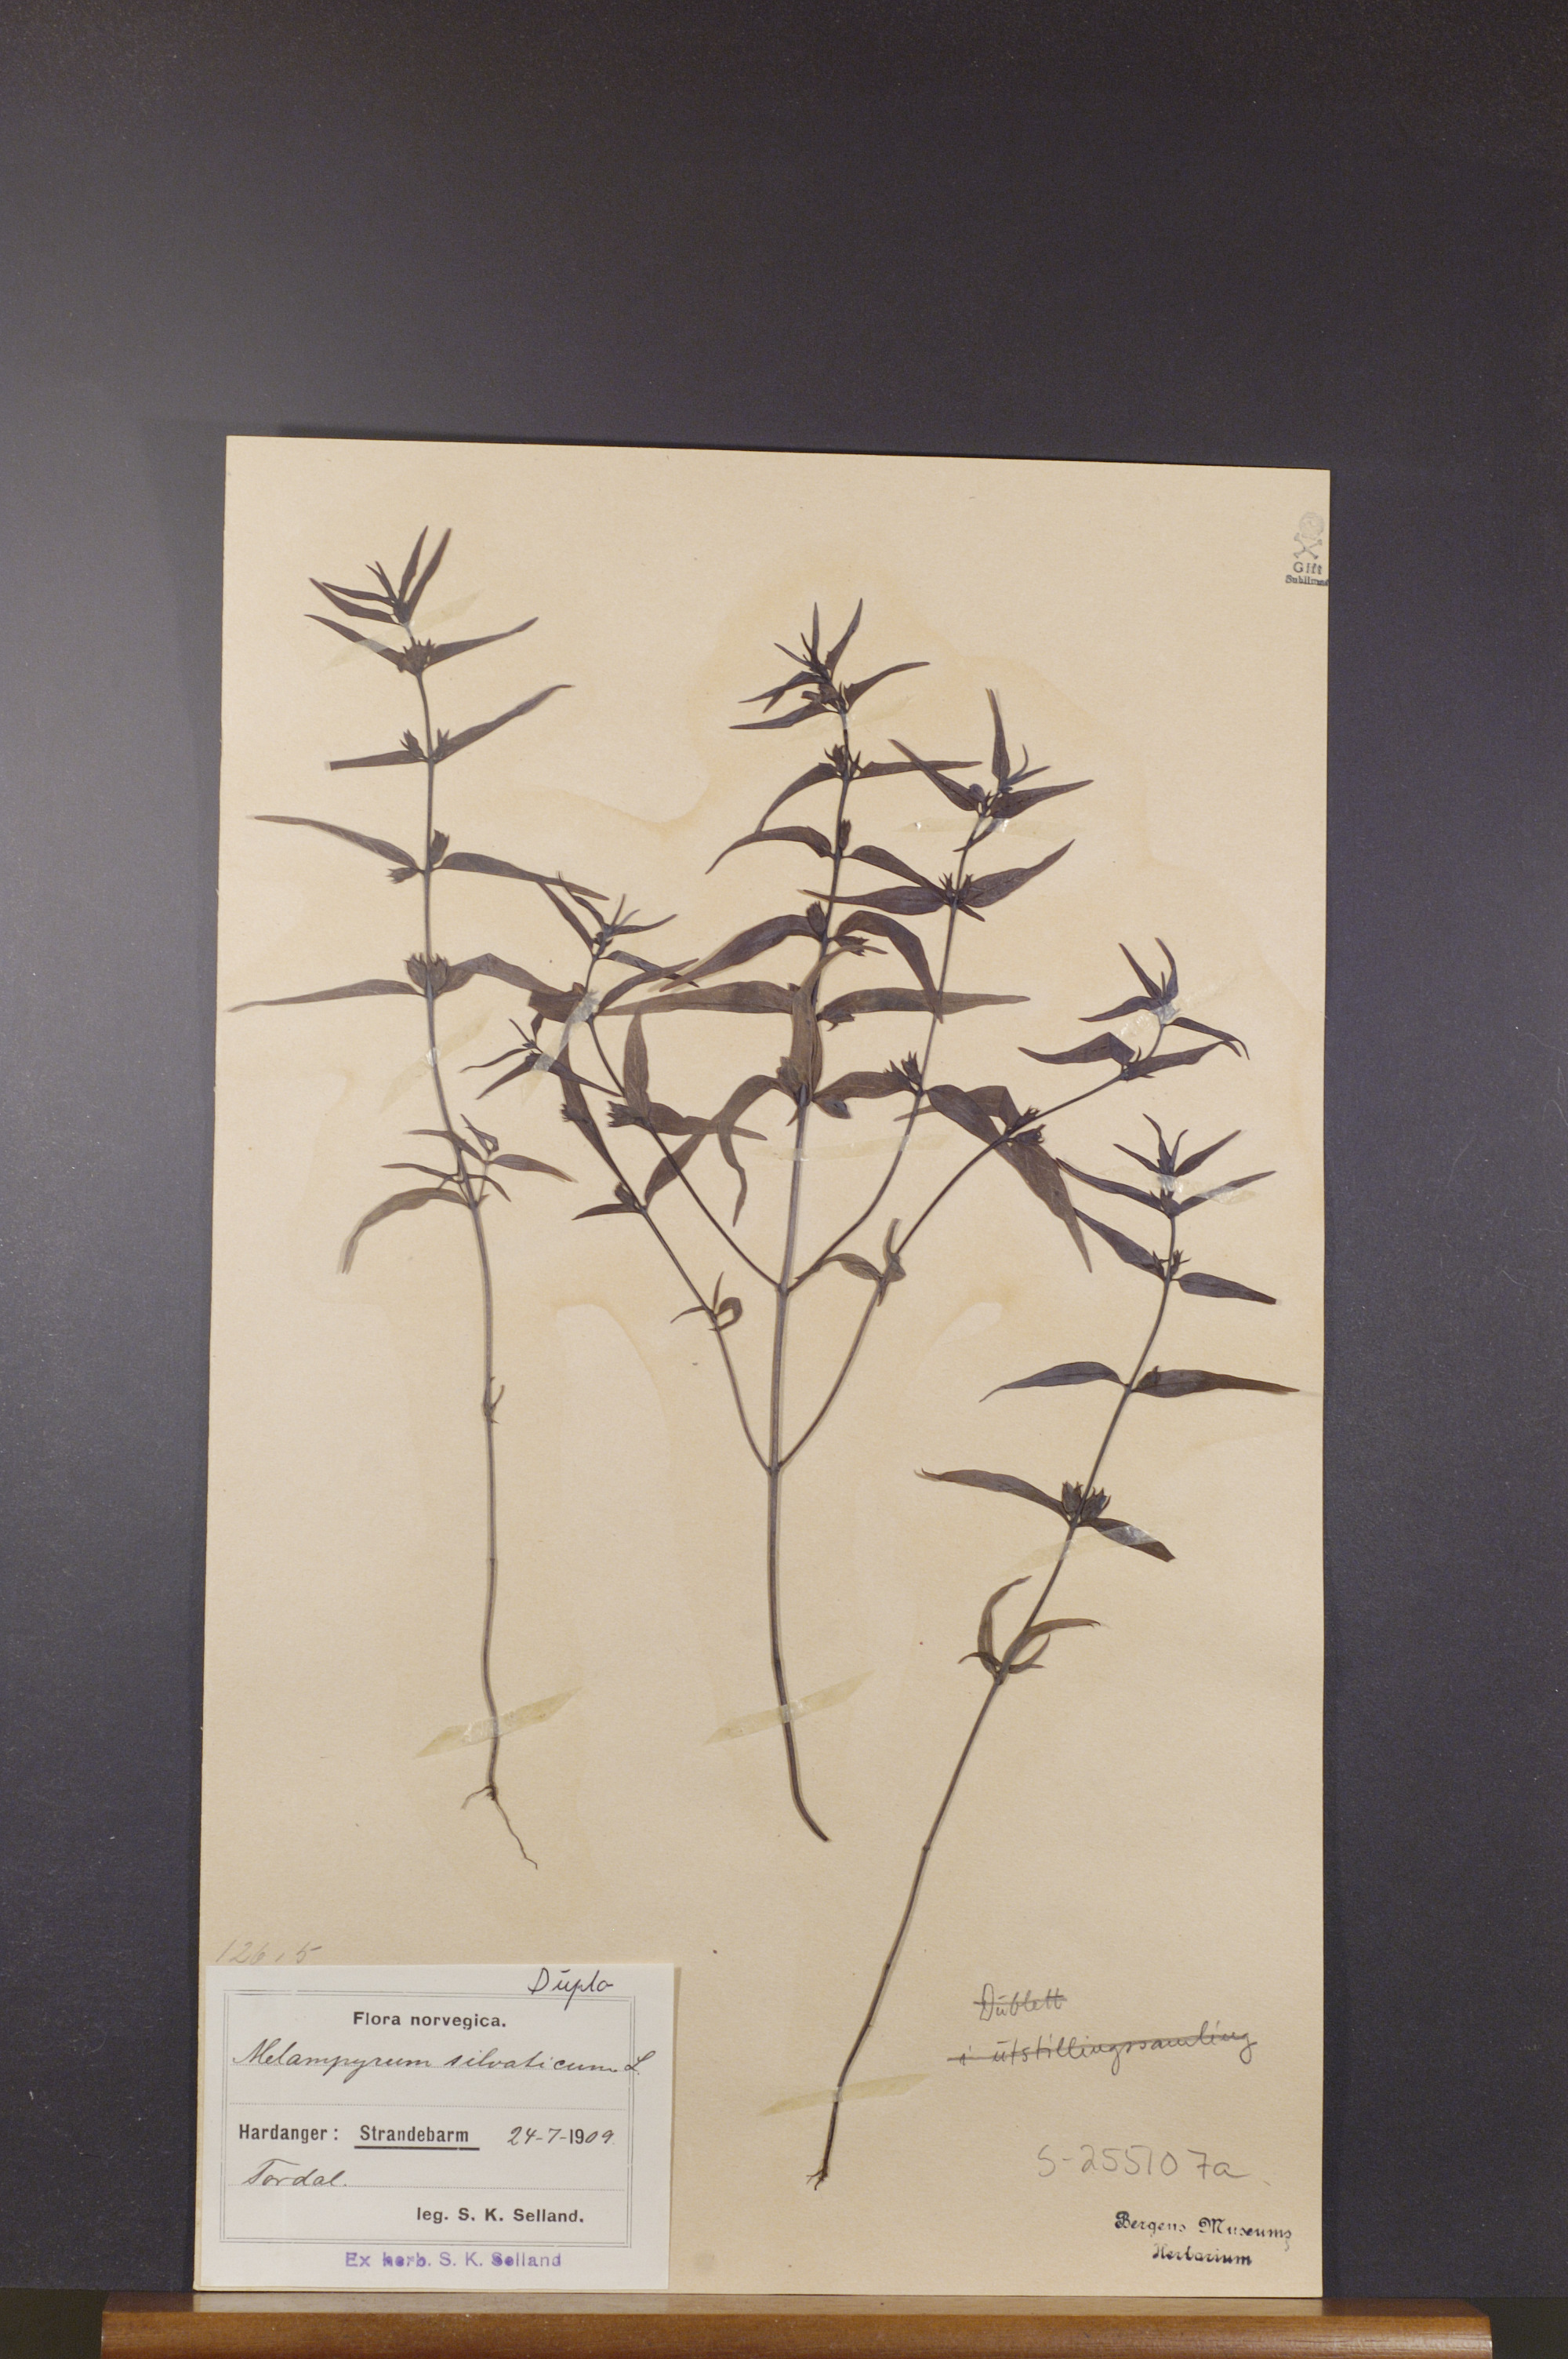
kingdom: Plantae
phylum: Tracheophyta
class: Magnoliopsida
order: Lamiales
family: Orobanchaceae
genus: Melampyrum
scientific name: Melampyrum sylvaticum
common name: Small cow-wheat
